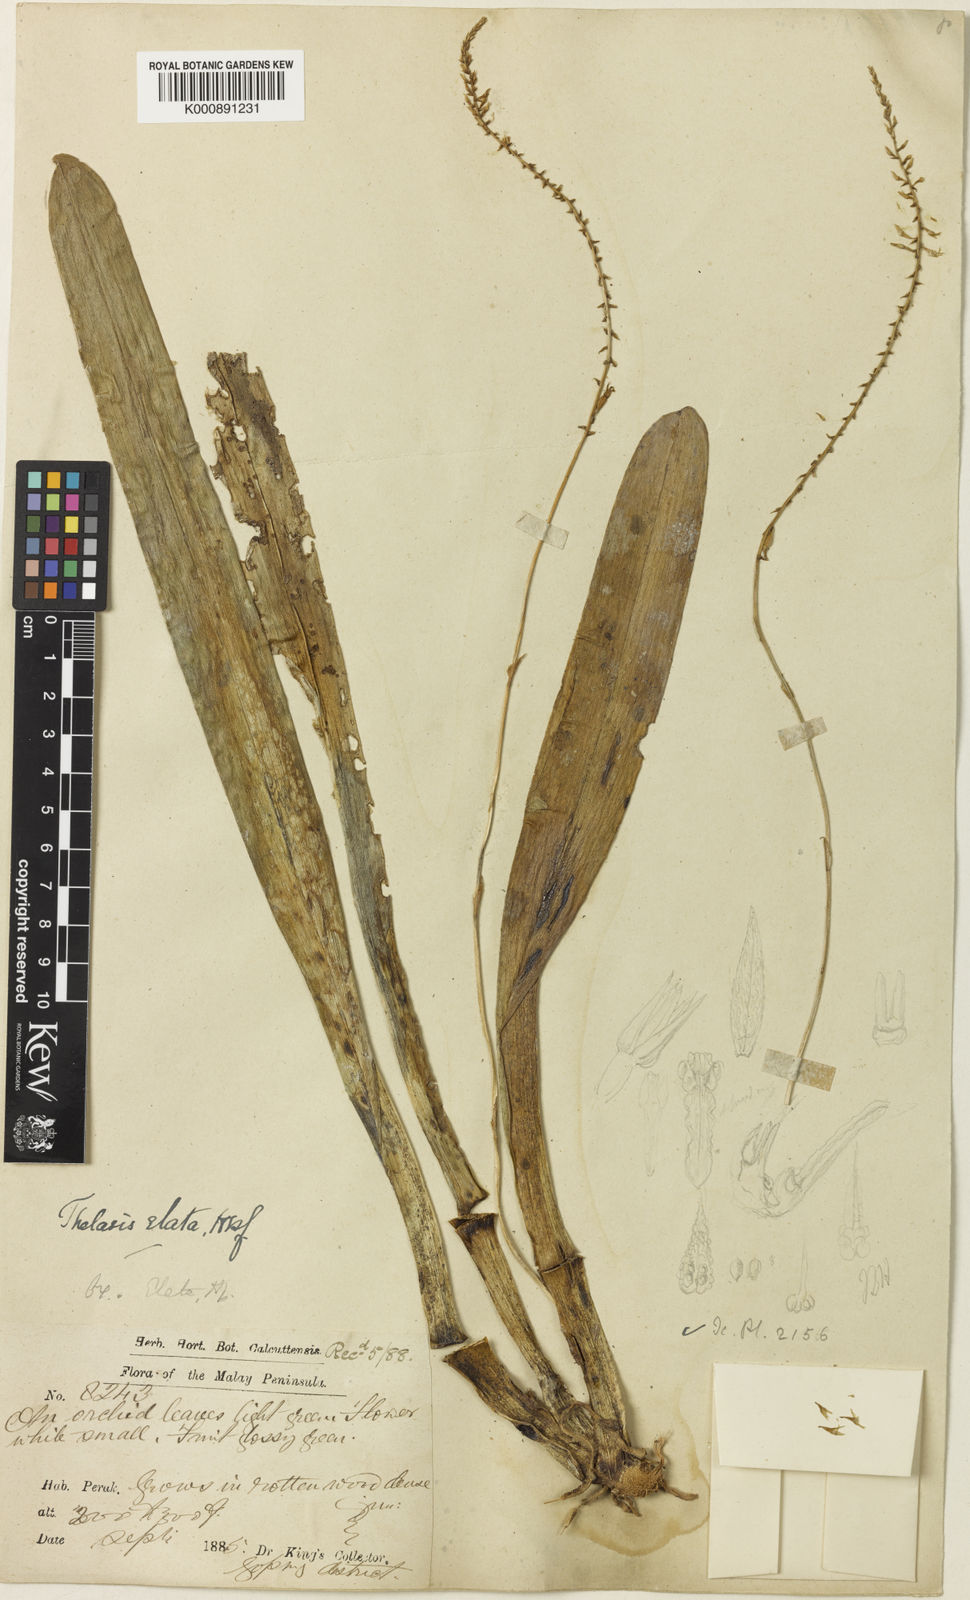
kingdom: Plantae
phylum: Tracheophyta
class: Liliopsida
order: Asparagales
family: Orchidaceae
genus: Thelasis
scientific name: Thelasis carinata
